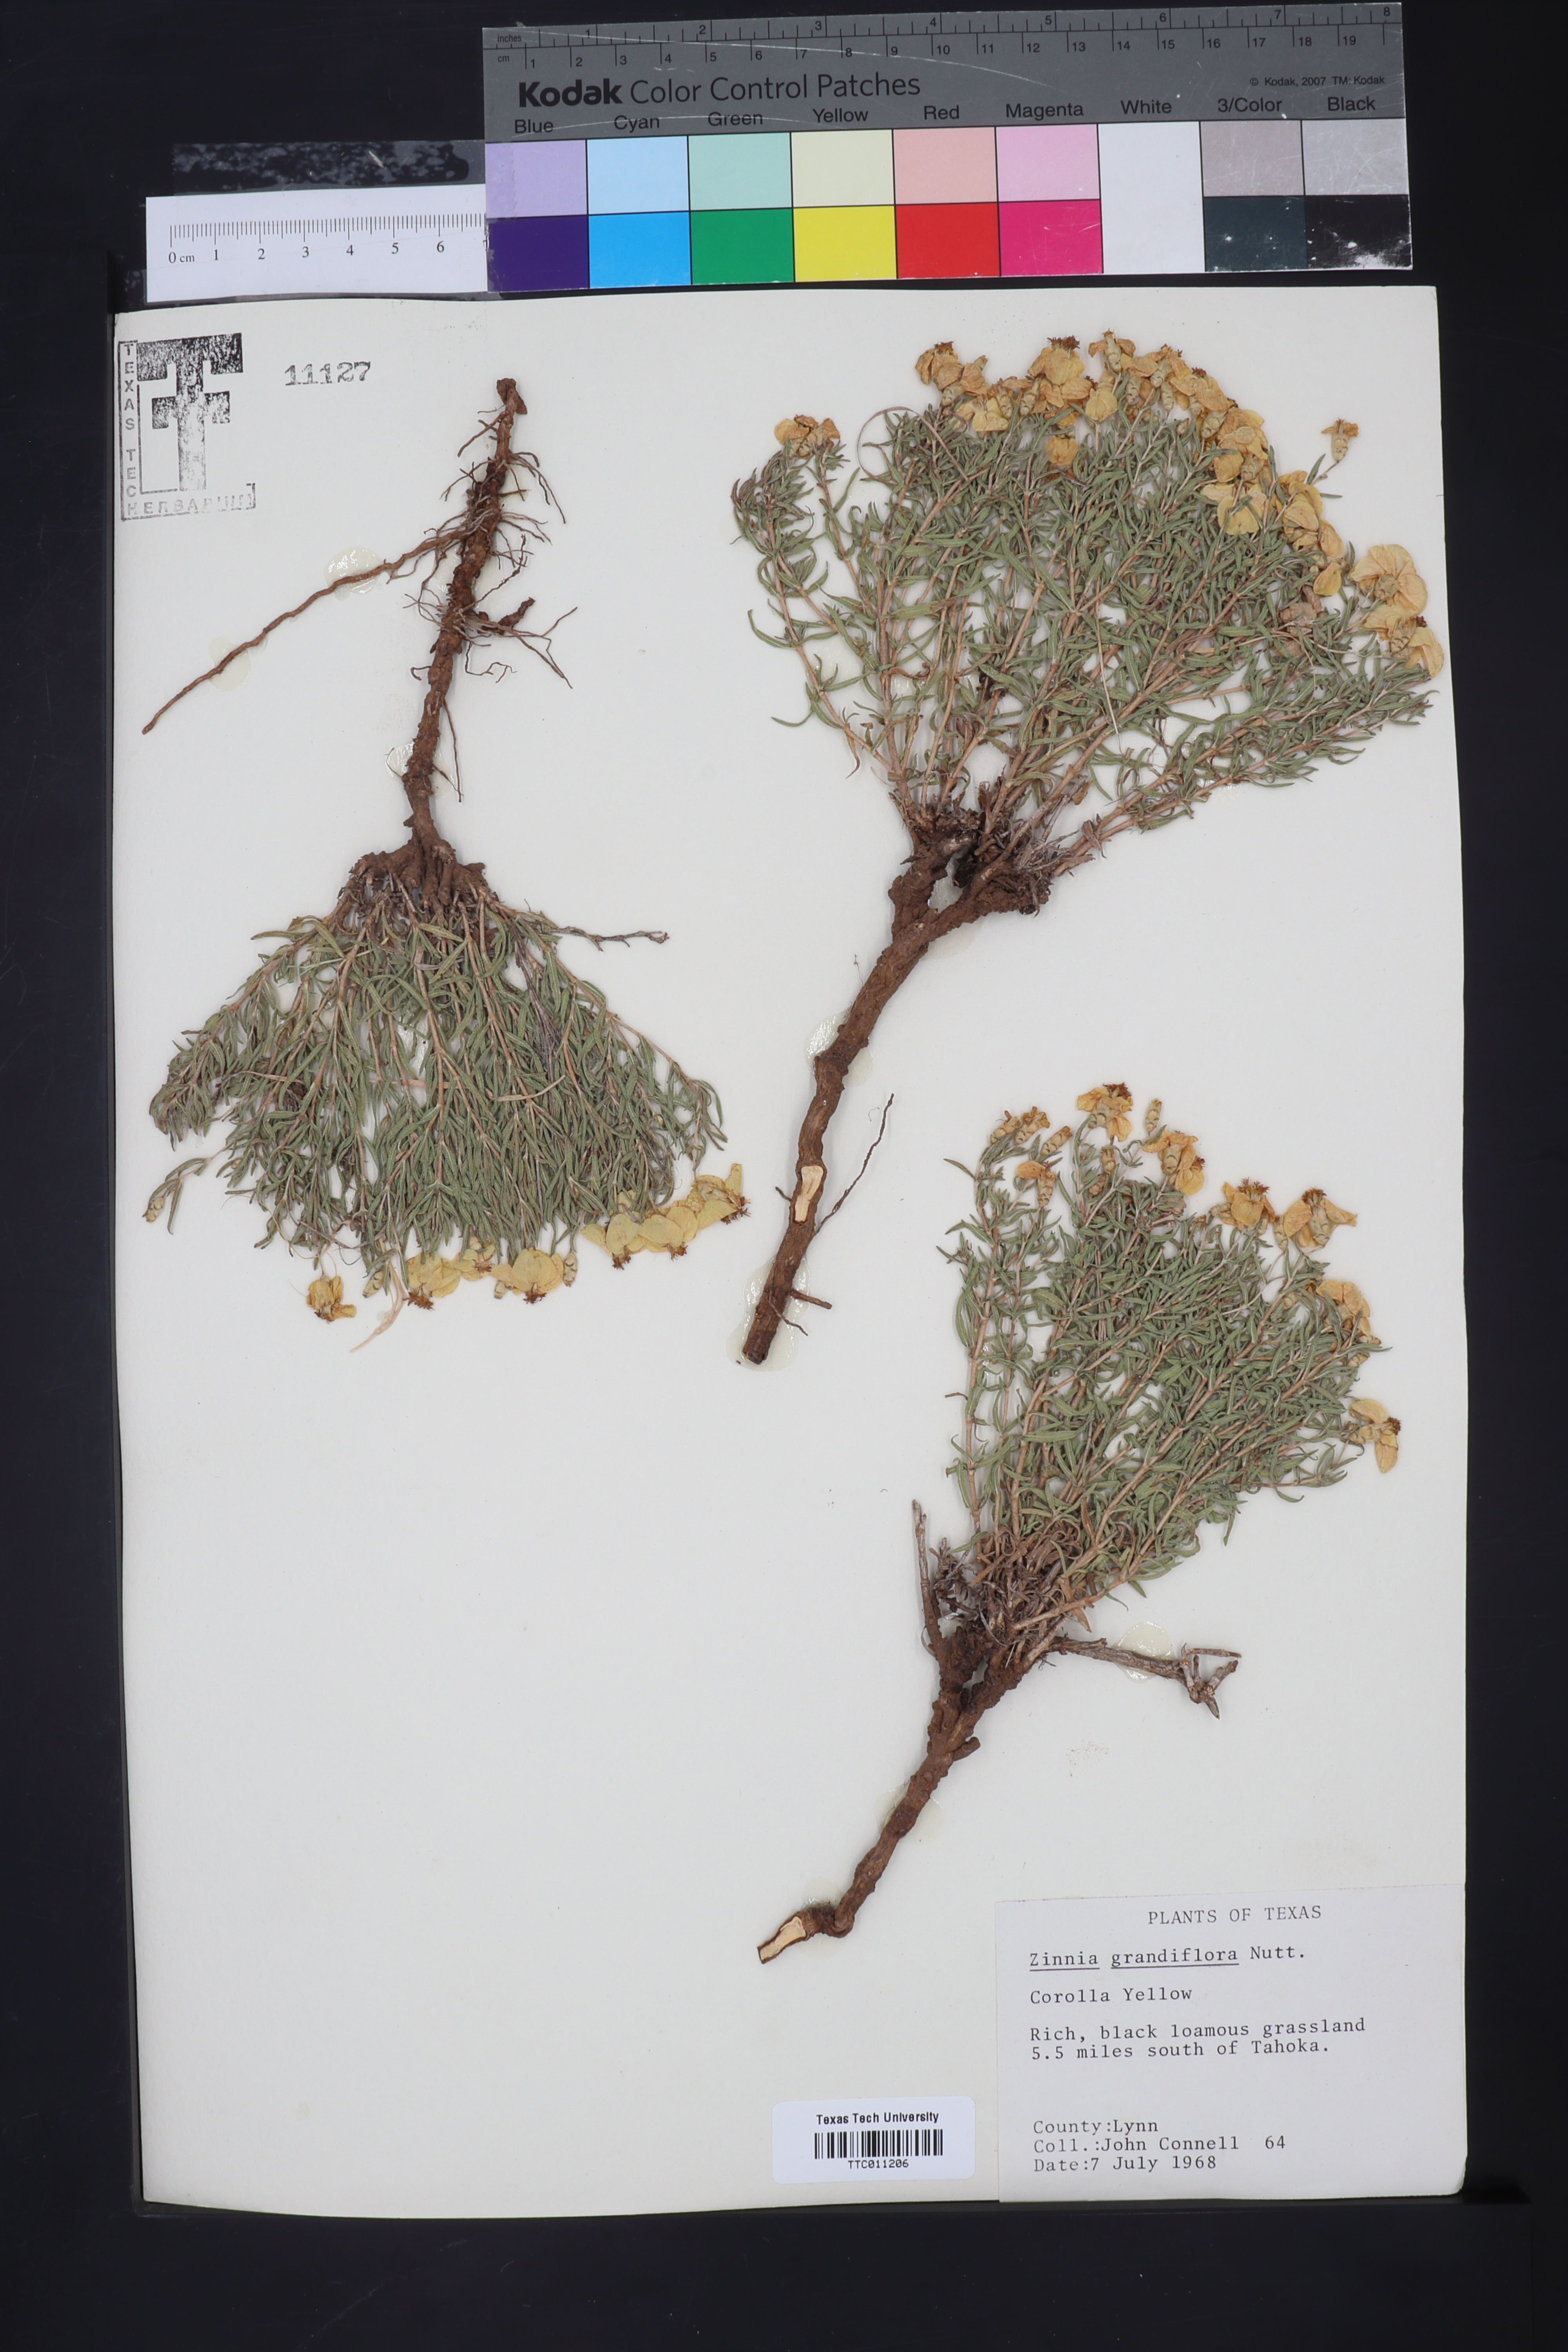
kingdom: Plantae
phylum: Tracheophyta
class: Magnoliopsida
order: Asterales
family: Asteraceae
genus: Zinnia
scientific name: Zinnia grandiflora
